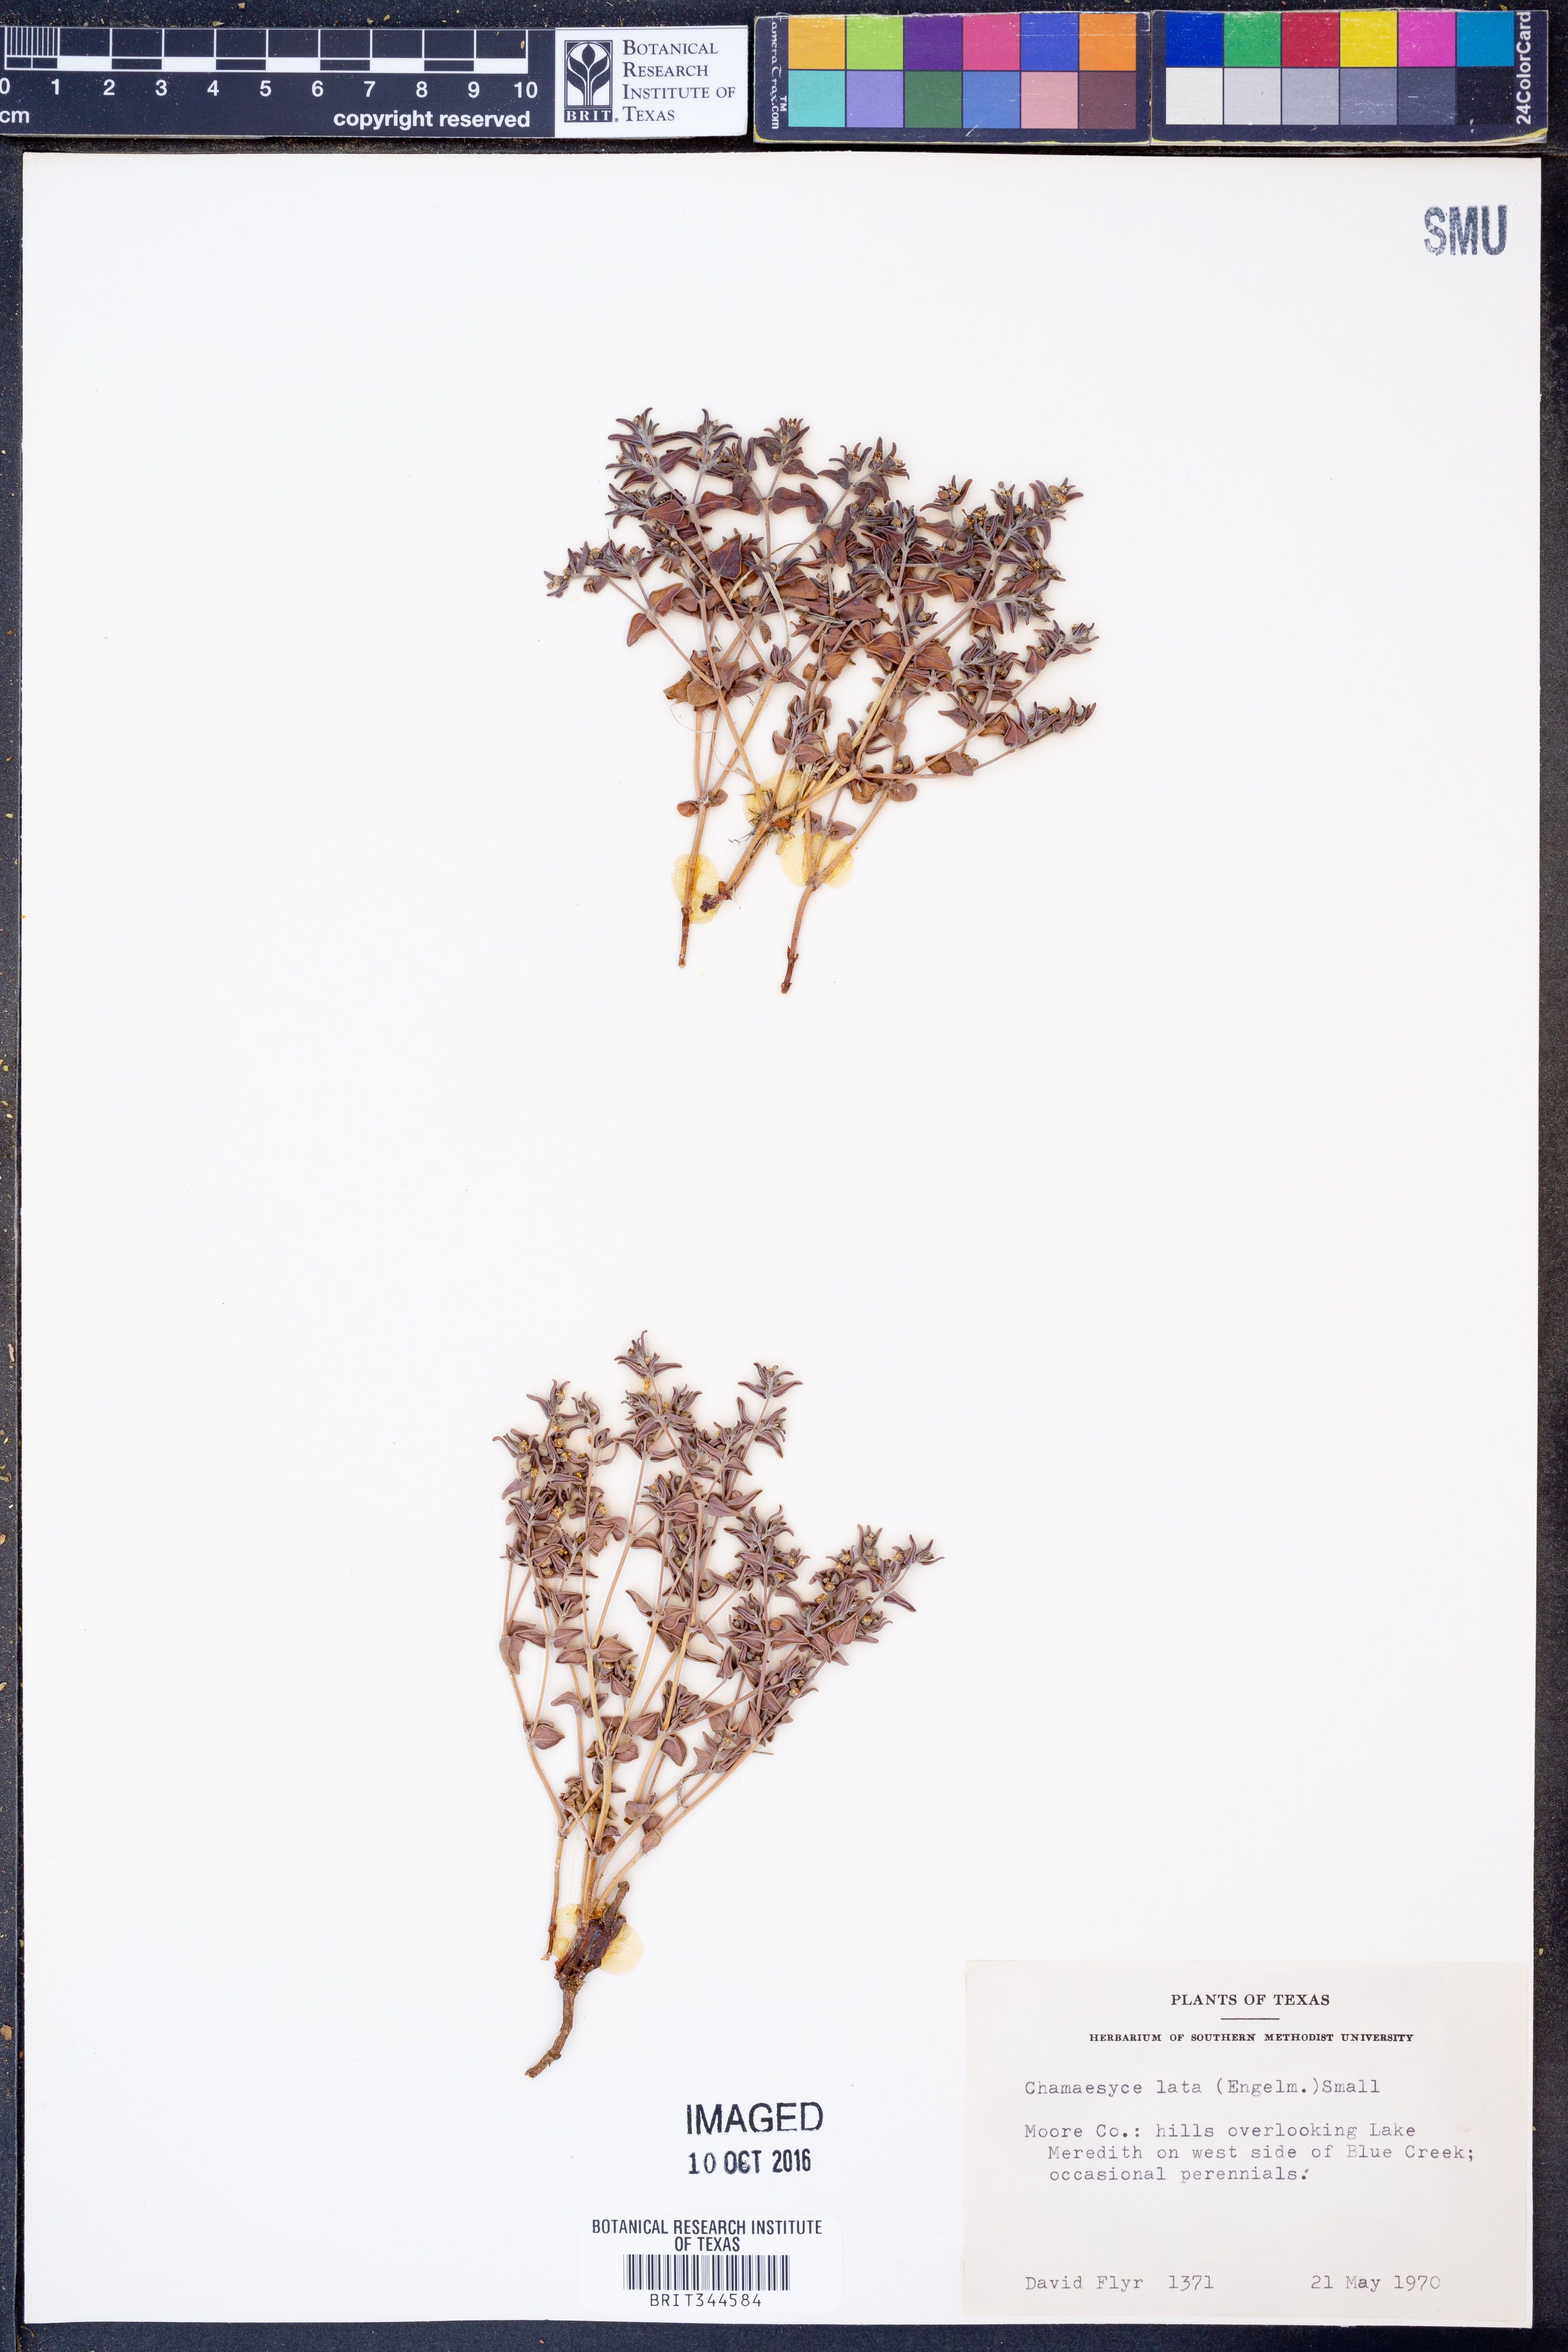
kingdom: Plantae
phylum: Tracheophyta
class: Magnoliopsida
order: Malpighiales
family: Euphorbiaceae
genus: Euphorbia
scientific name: Euphorbia lata
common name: Hoary euphorbia
